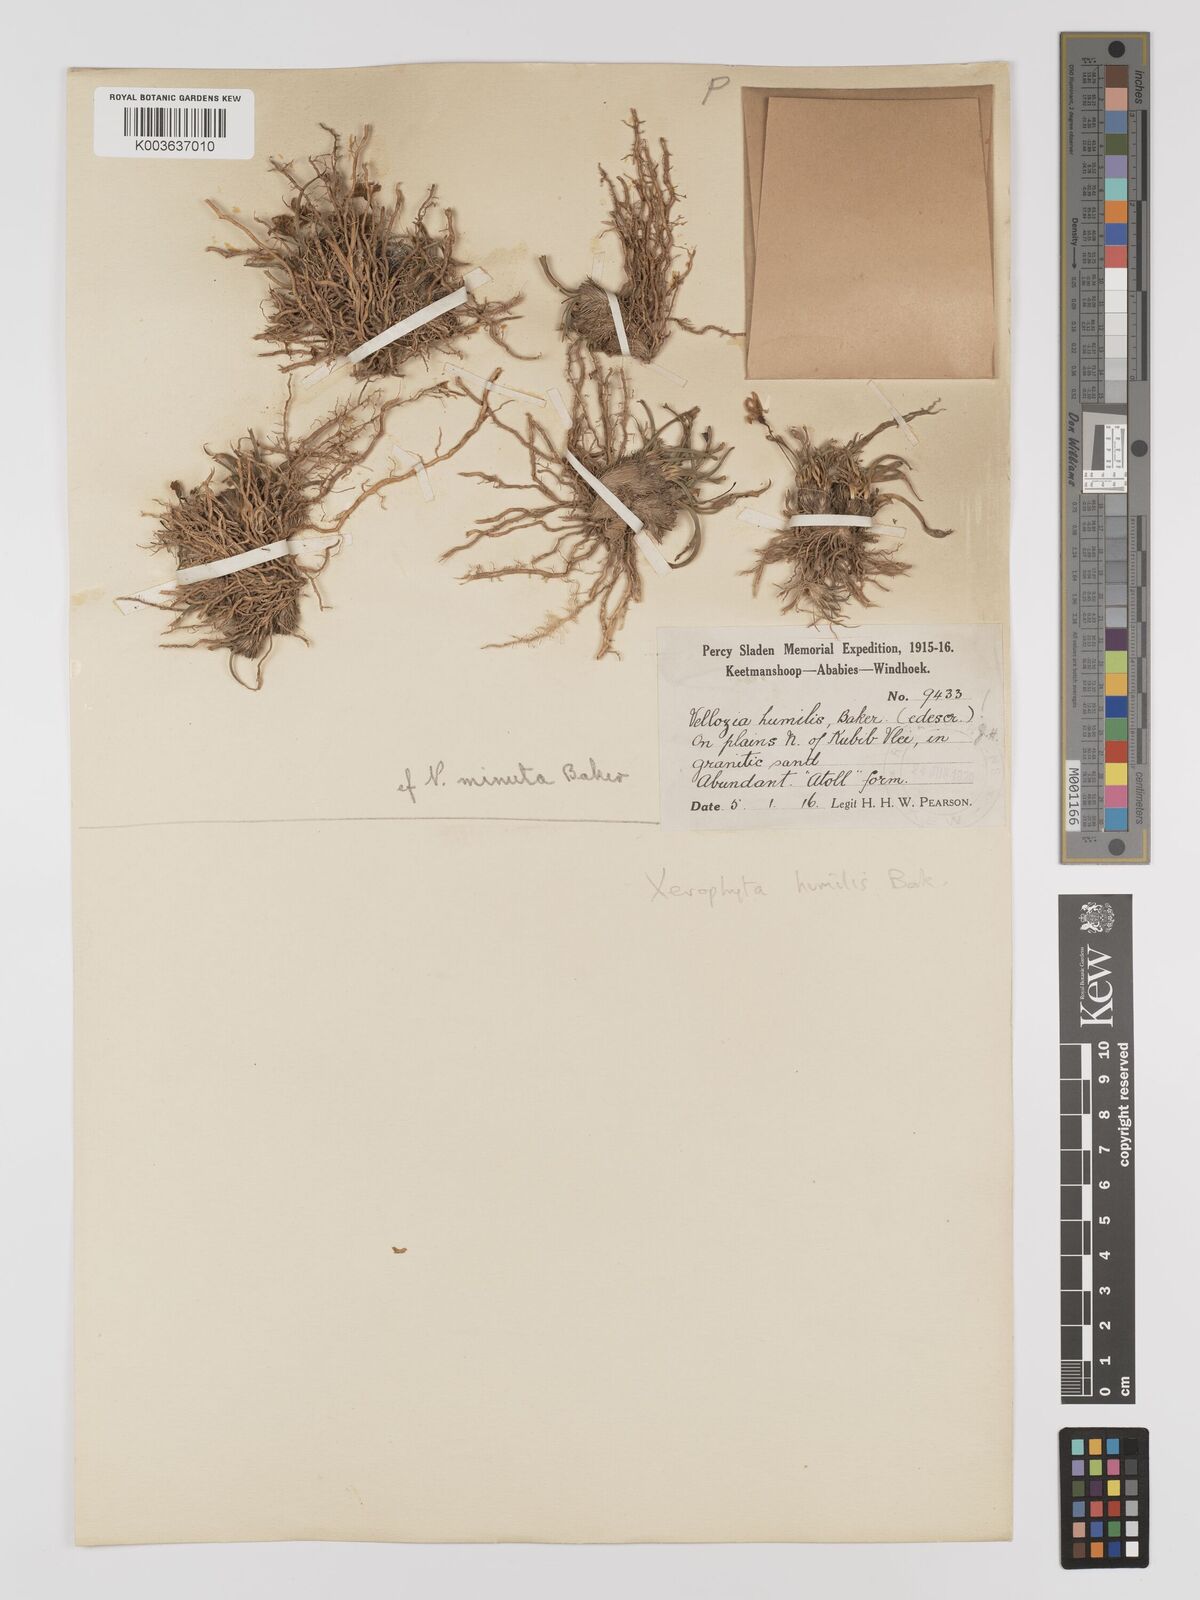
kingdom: Plantae
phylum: Tracheophyta
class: Liliopsida
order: Pandanales
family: Velloziaceae
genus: Xerophyta
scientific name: Xerophyta humilis
